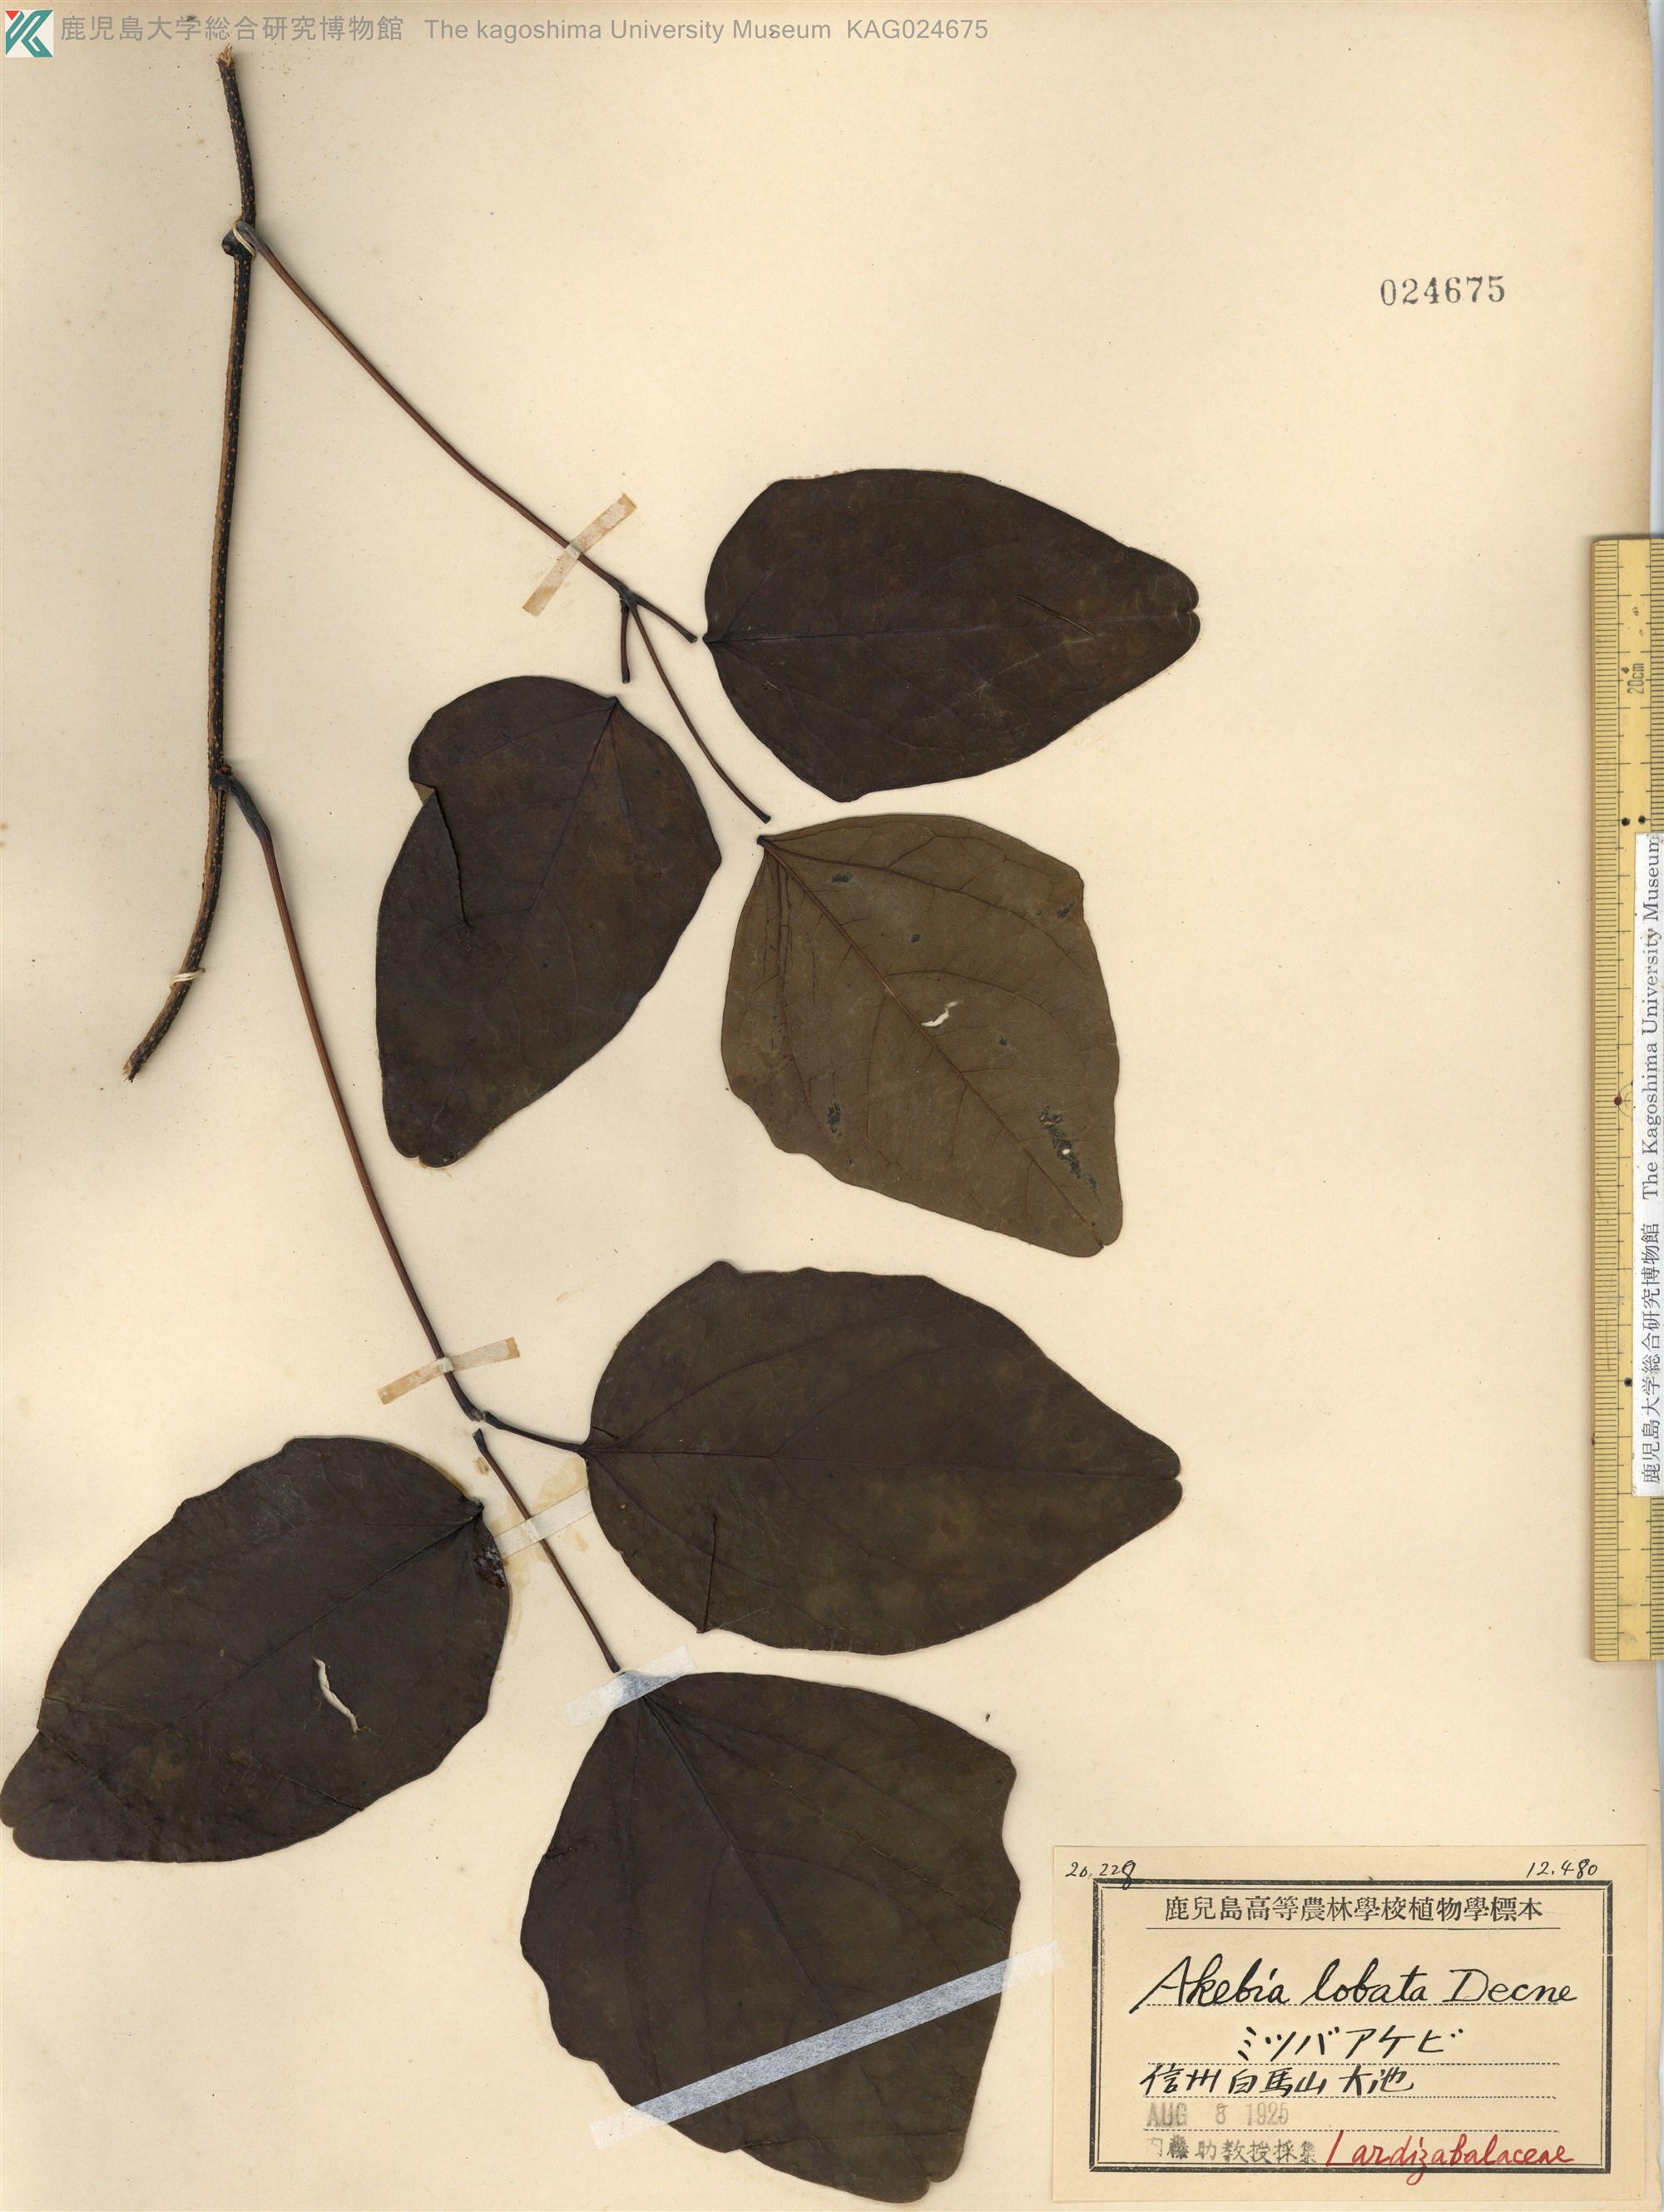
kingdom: Plantae
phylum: Tracheophyta
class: Magnoliopsida
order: Ranunculales
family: Lardizabalaceae
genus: Akebia
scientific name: Akebia trifoliata
